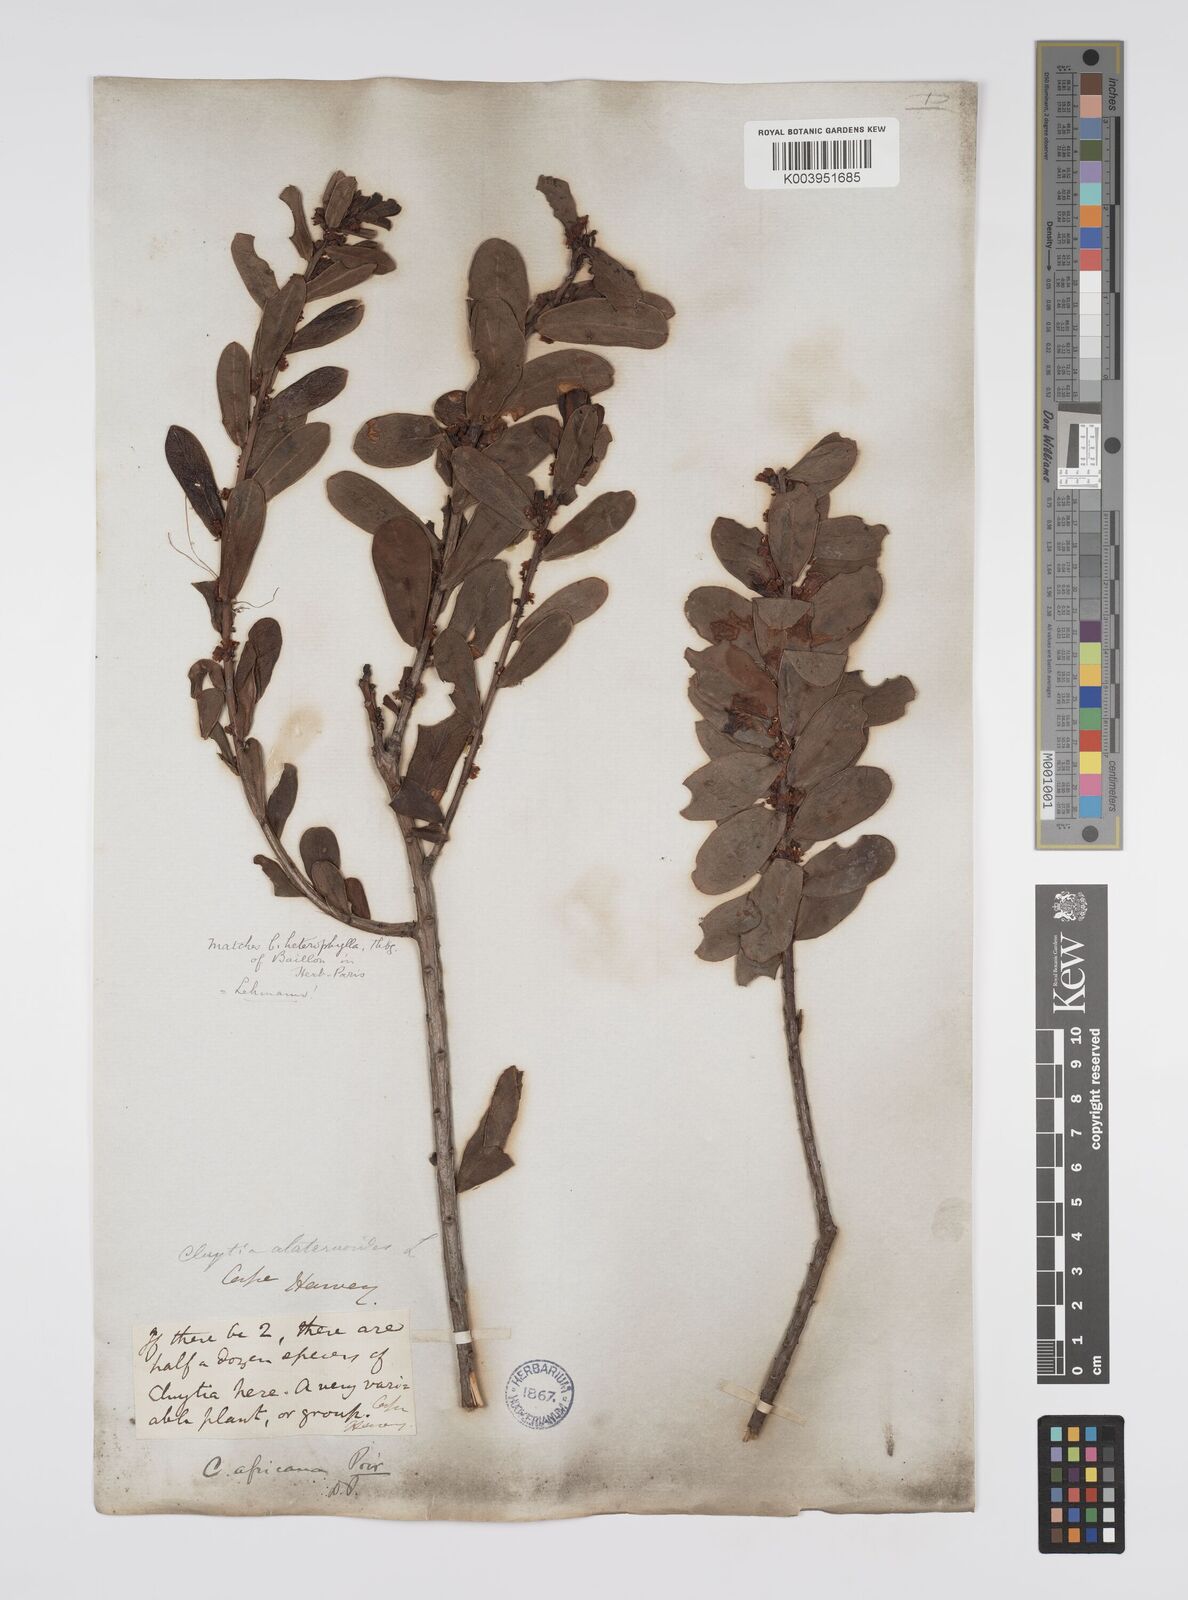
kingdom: Plantae
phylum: Tracheophyta
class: Magnoliopsida
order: Malpighiales
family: Peraceae
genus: Clutia
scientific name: Clutia africana
